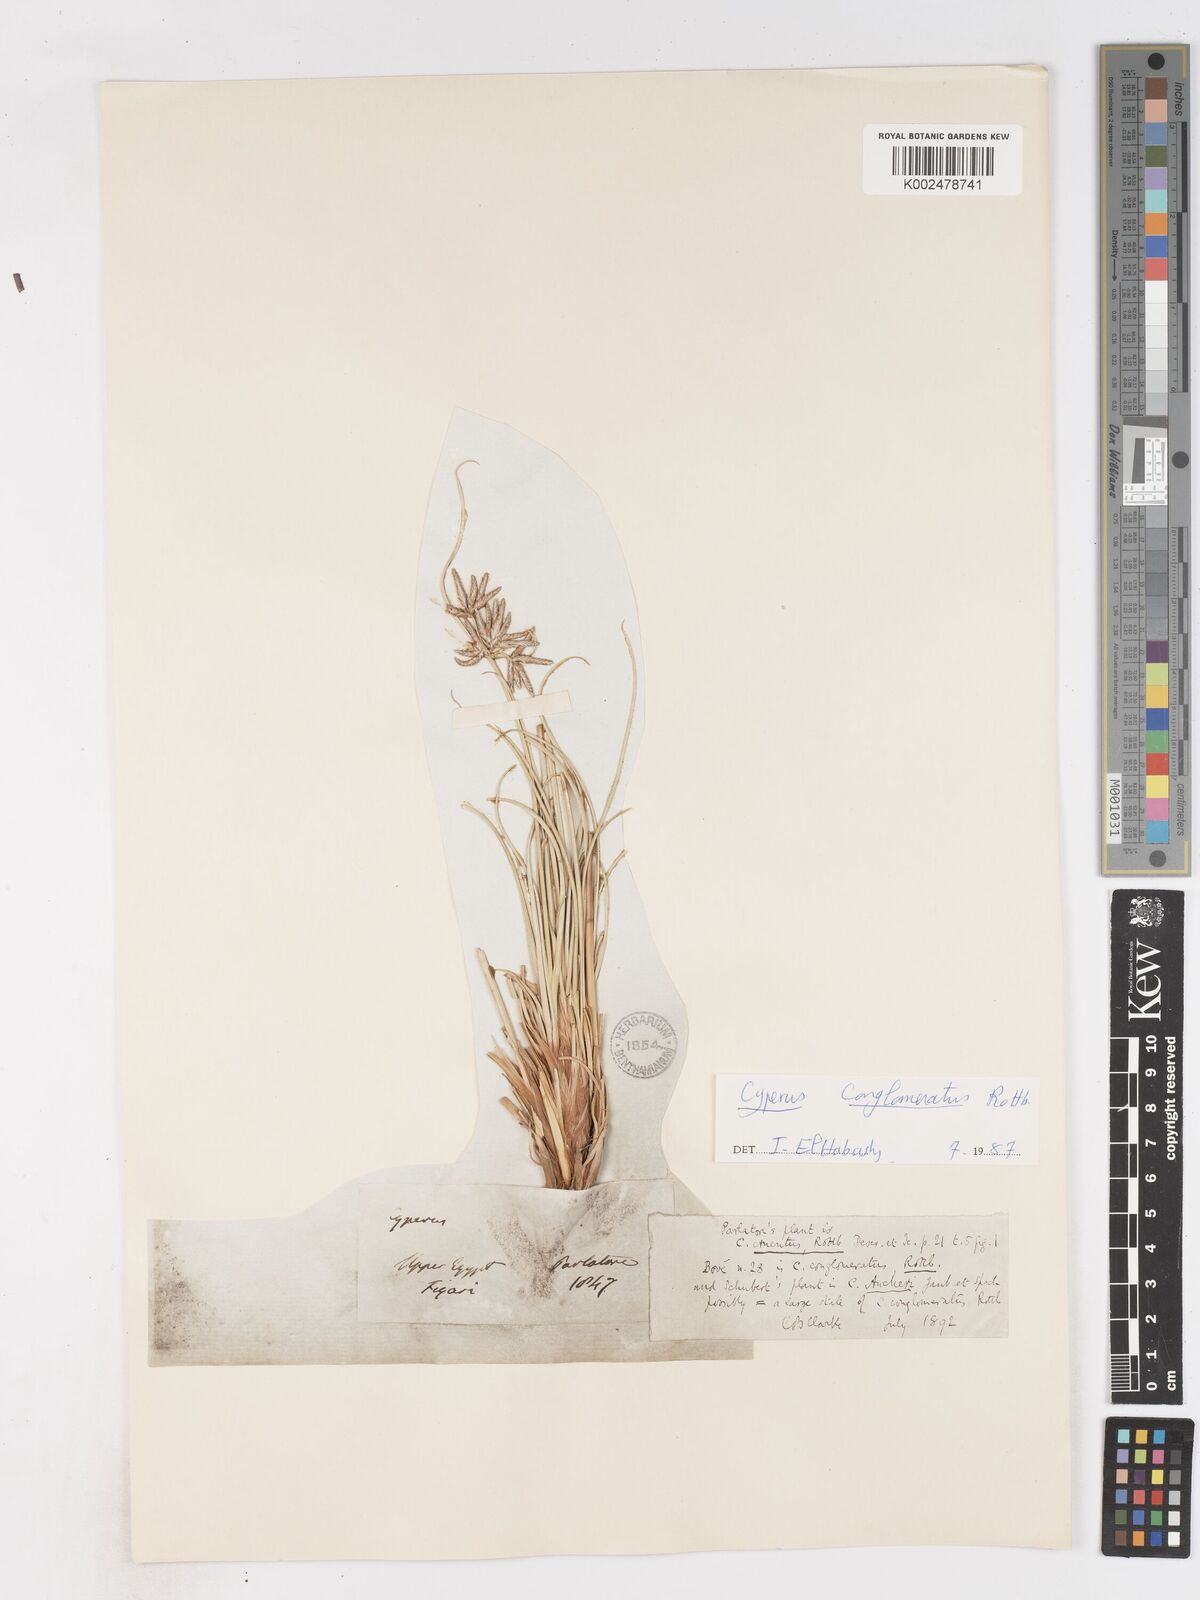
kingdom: Plantae
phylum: Tracheophyta
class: Liliopsida
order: Poales
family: Cyperaceae
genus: Cyperus
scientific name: Cyperus conglomeratus
